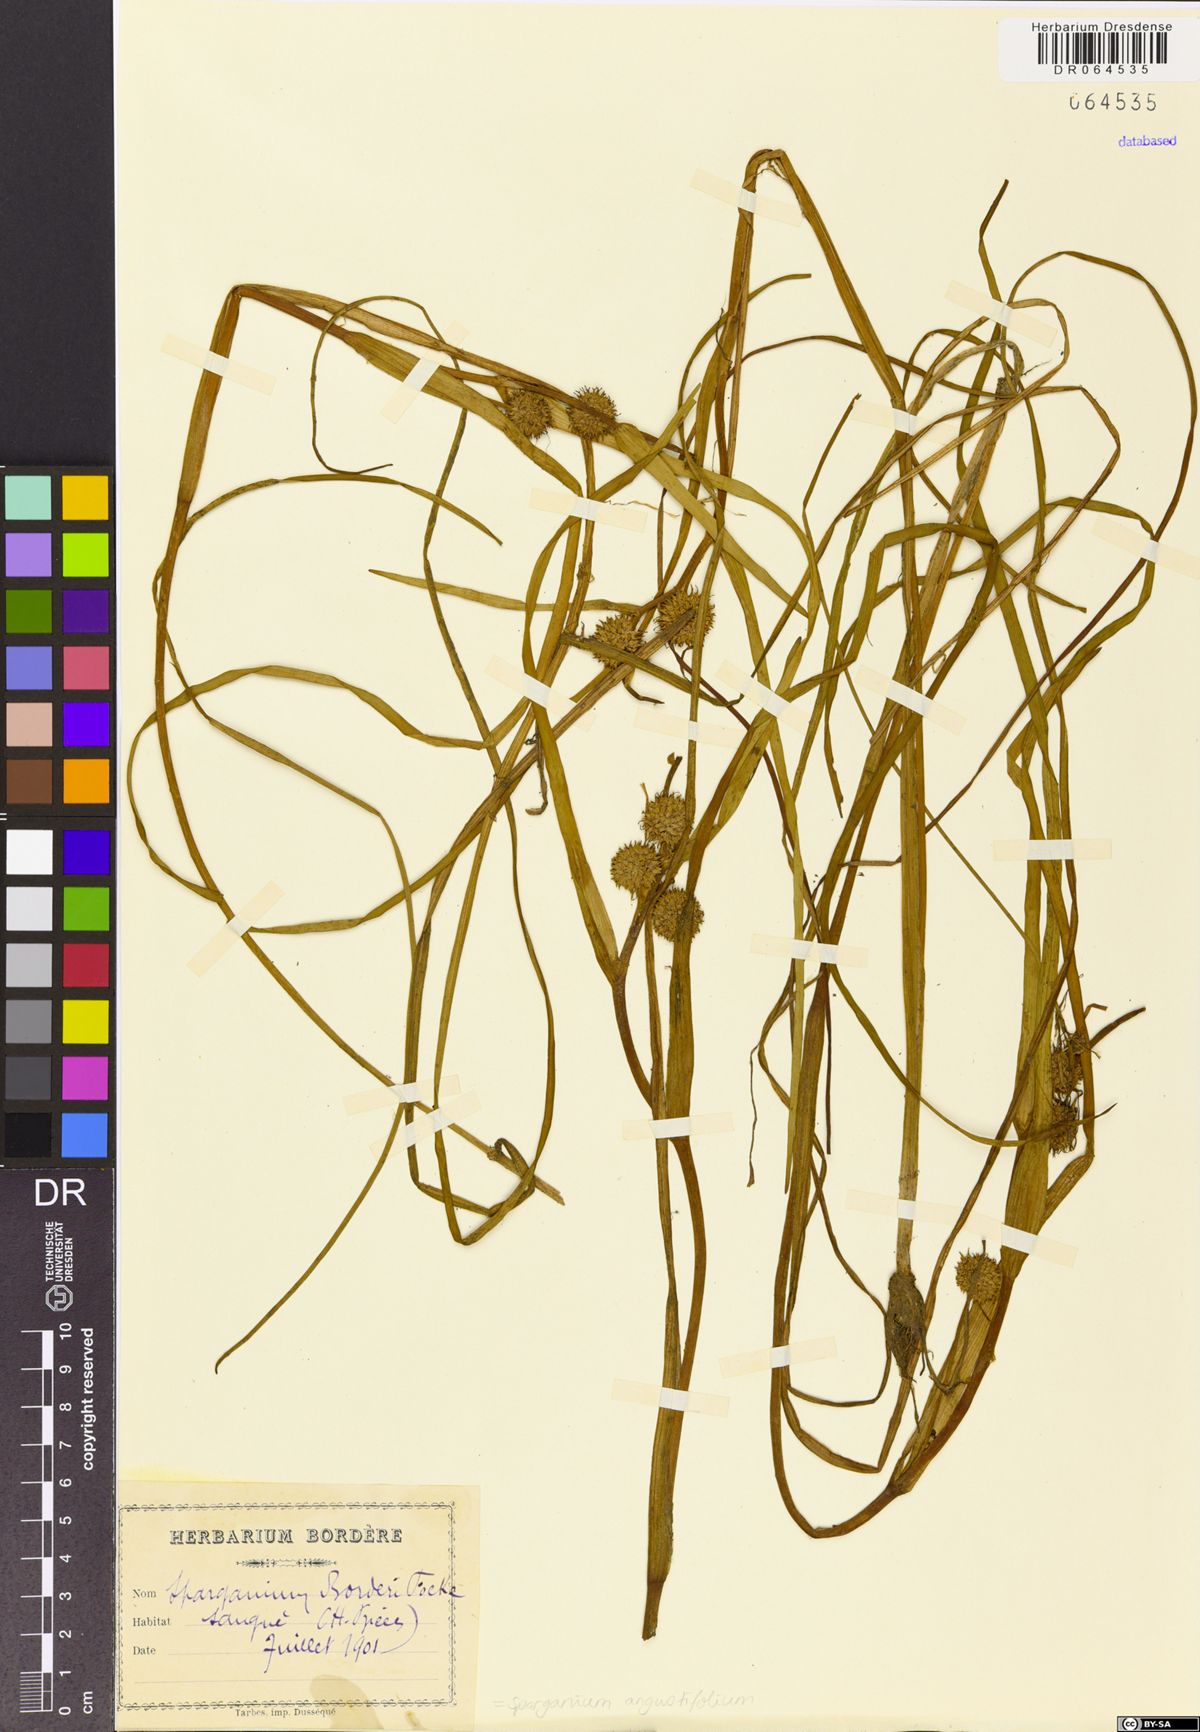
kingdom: Plantae
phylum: Tracheophyta
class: Liliopsida
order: Poales
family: Typhaceae
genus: Sparganium
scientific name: Sparganium angustifolium
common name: Floating bur-reed
